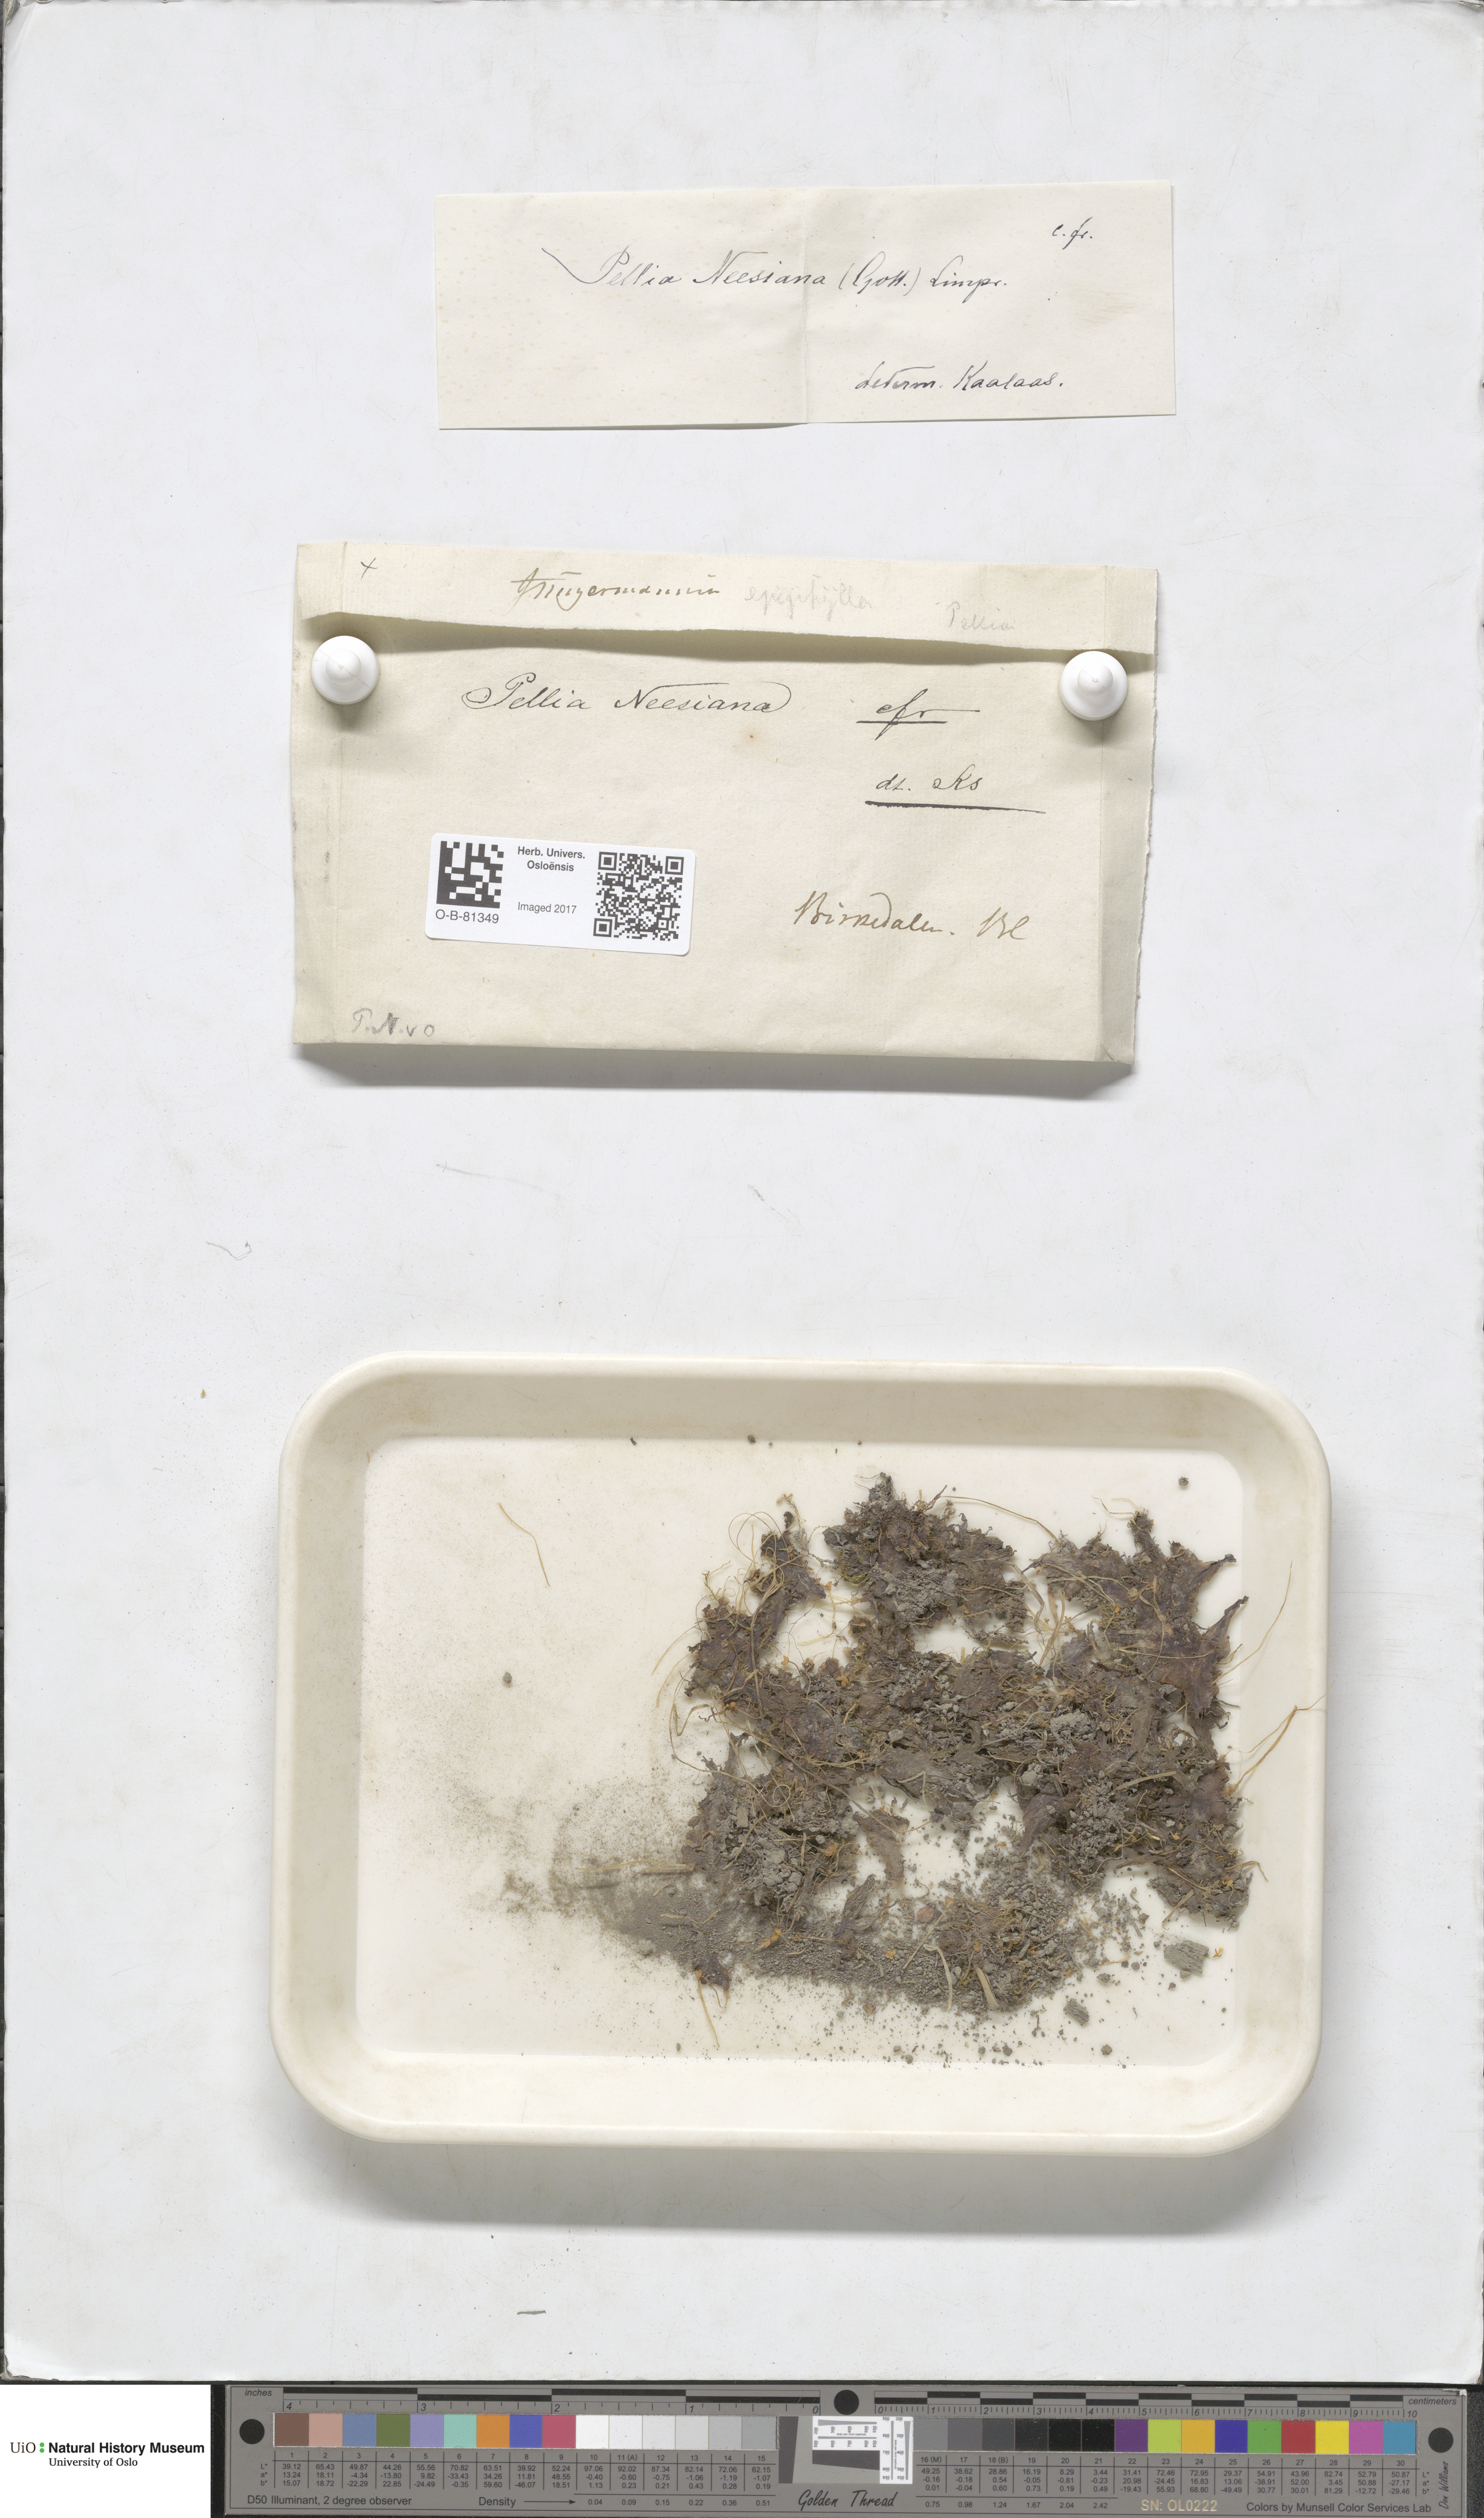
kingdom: Plantae
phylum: Marchantiophyta
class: Jungermanniopsida
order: Pelliales
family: Pelliaceae
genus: Pellia
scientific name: Pellia neesiana
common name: Nees  pellia
